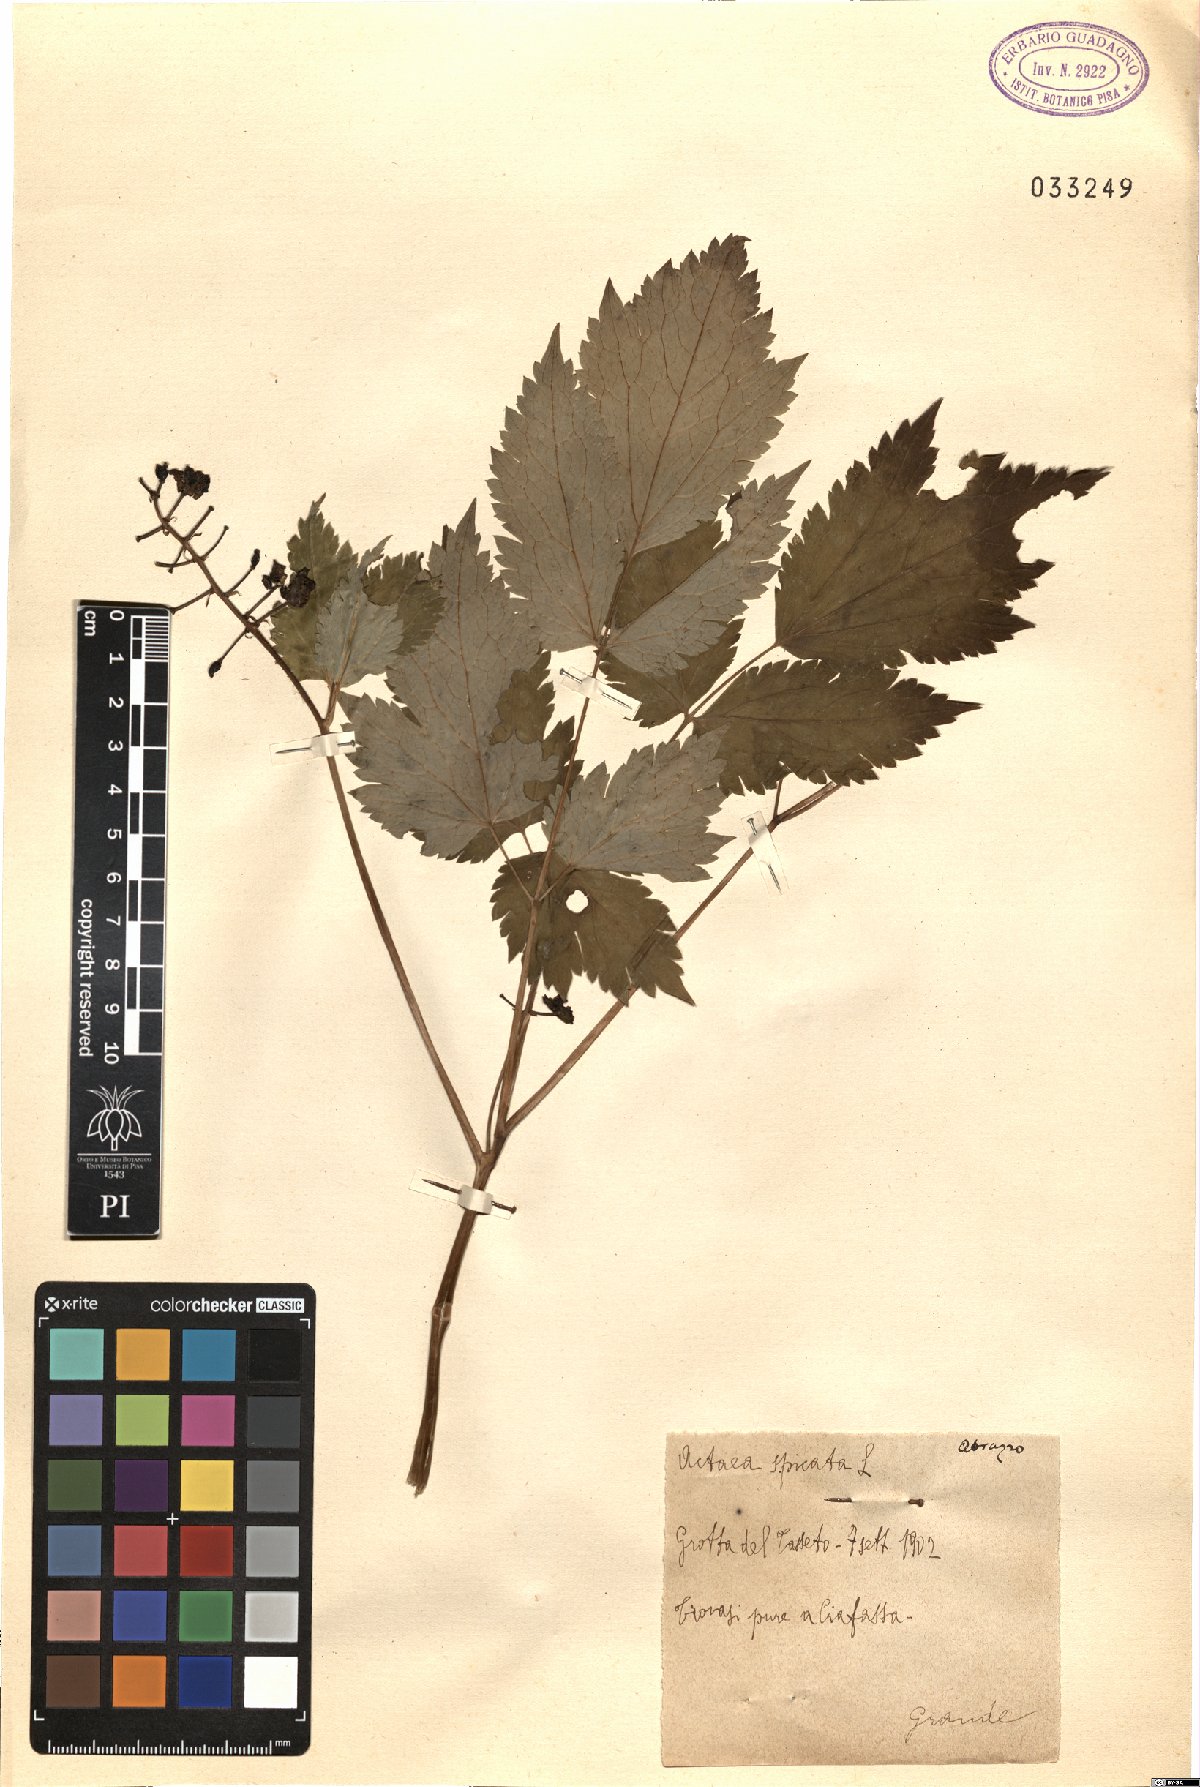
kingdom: Plantae
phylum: Tracheophyta
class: Magnoliopsida
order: Ranunculales
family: Ranunculaceae
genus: Actaea
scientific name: Actaea spicata
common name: Baneberry
